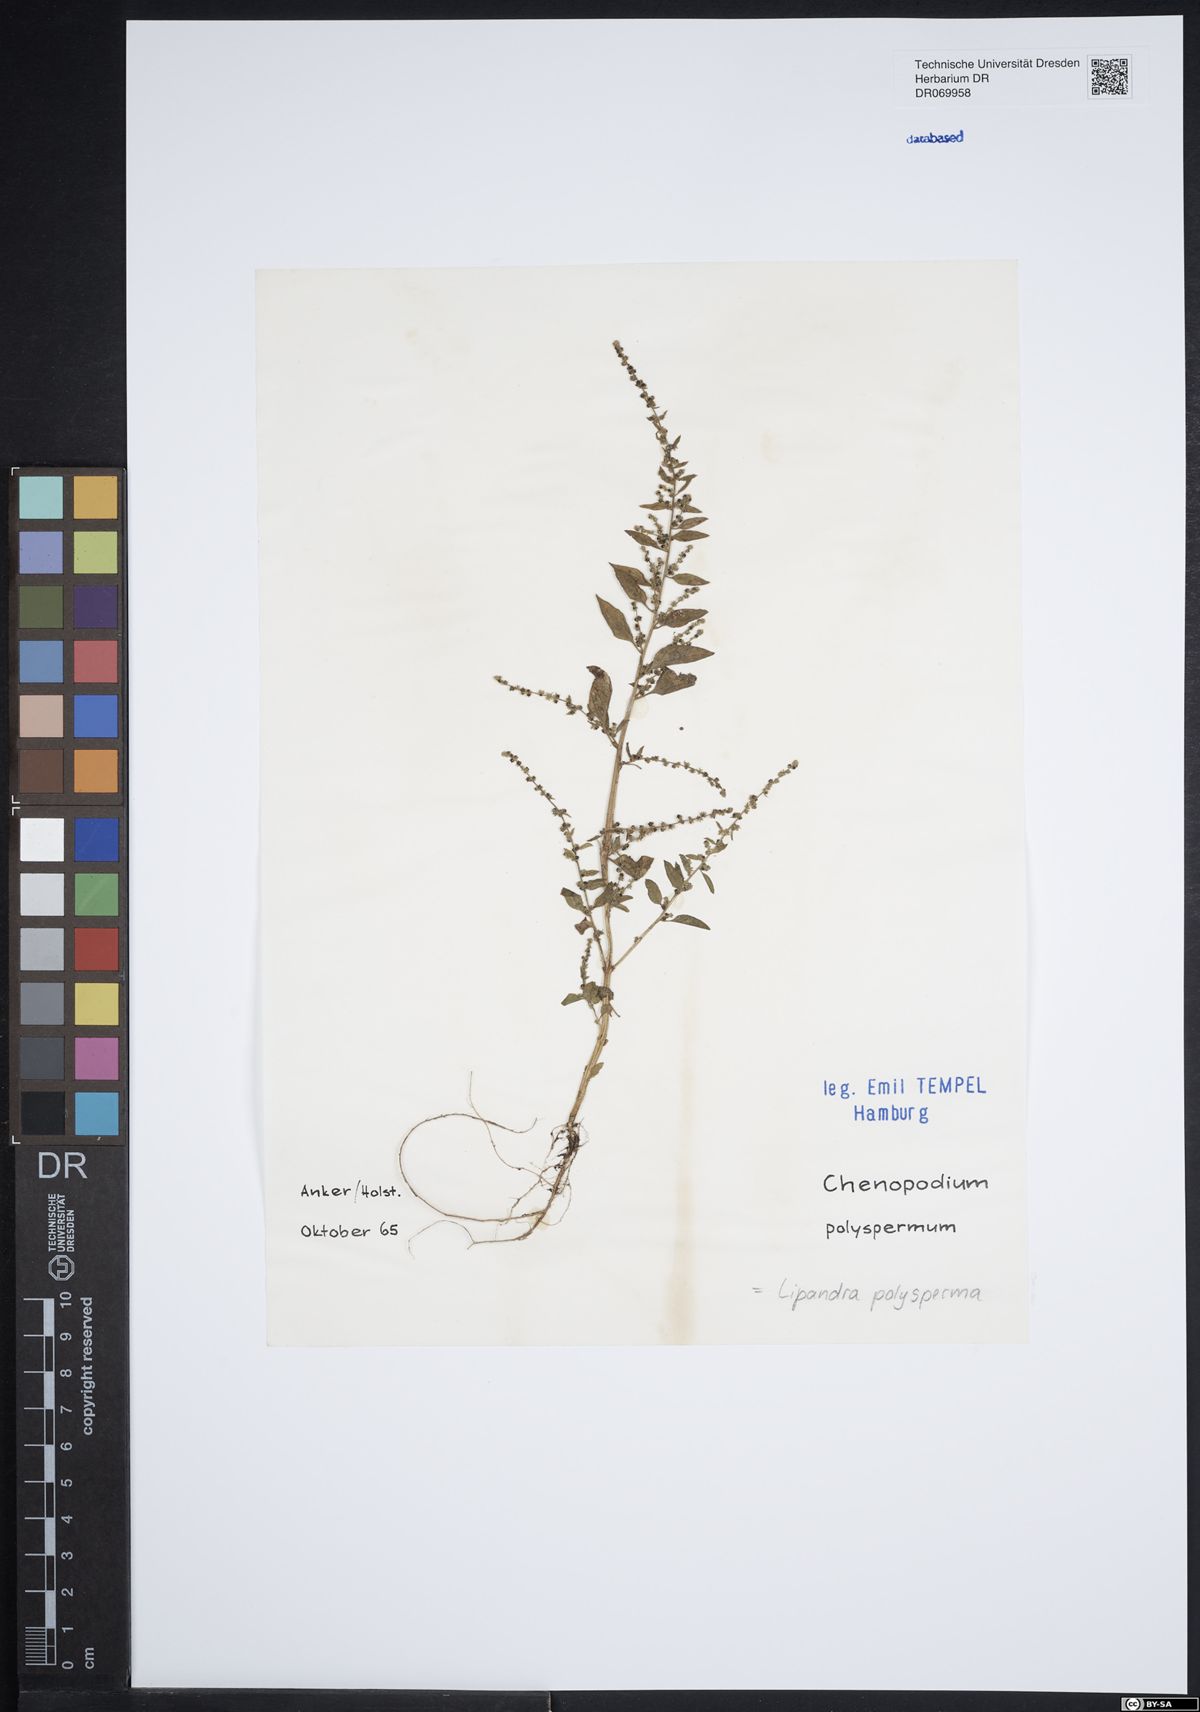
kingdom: Plantae
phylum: Tracheophyta
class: Magnoliopsida
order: Caryophyllales
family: Amaranthaceae
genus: Lipandra
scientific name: Lipandra polysperma
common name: Many-seed goosefoot
